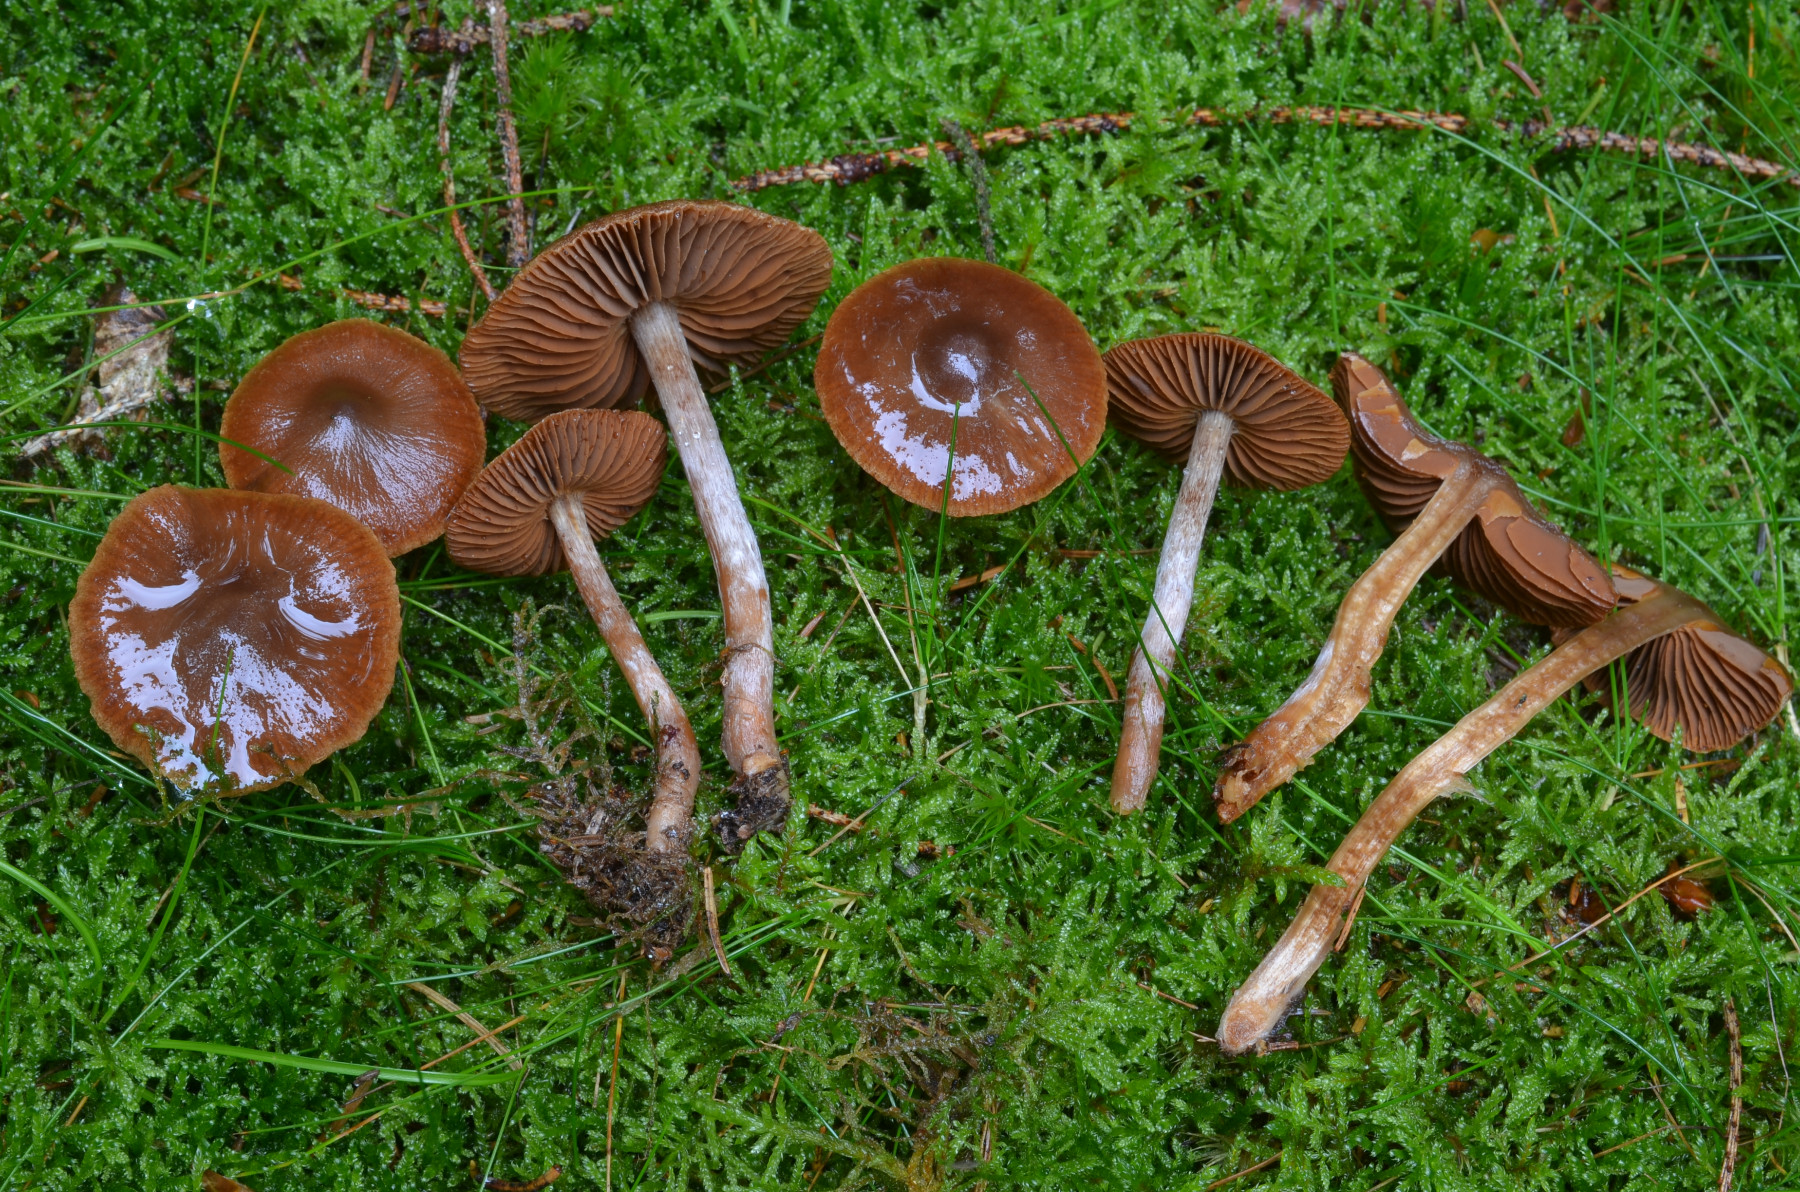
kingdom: Fungi
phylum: Basidiomycota
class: Agaricomycetes
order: Agaricales
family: Cortinariaceae
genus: Cortinarius
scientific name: Cortinarius flabellus
